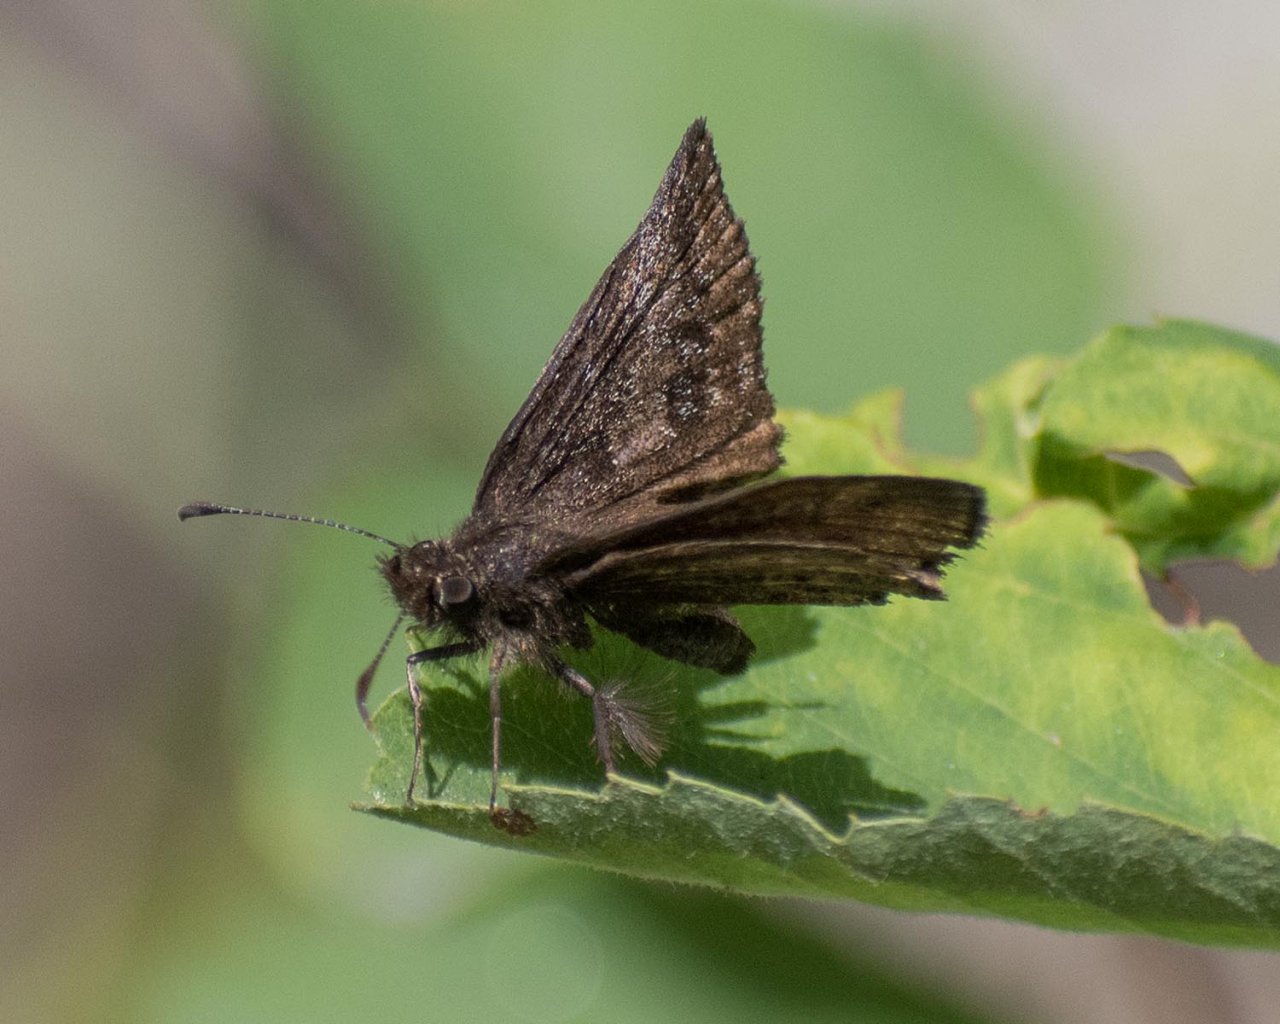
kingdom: Animalia
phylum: Arthropoda
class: Insecta
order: Lepidoptera
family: Hesperiidae
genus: Erynnis
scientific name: Erynnis icelus
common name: Dreamy Duskywing
